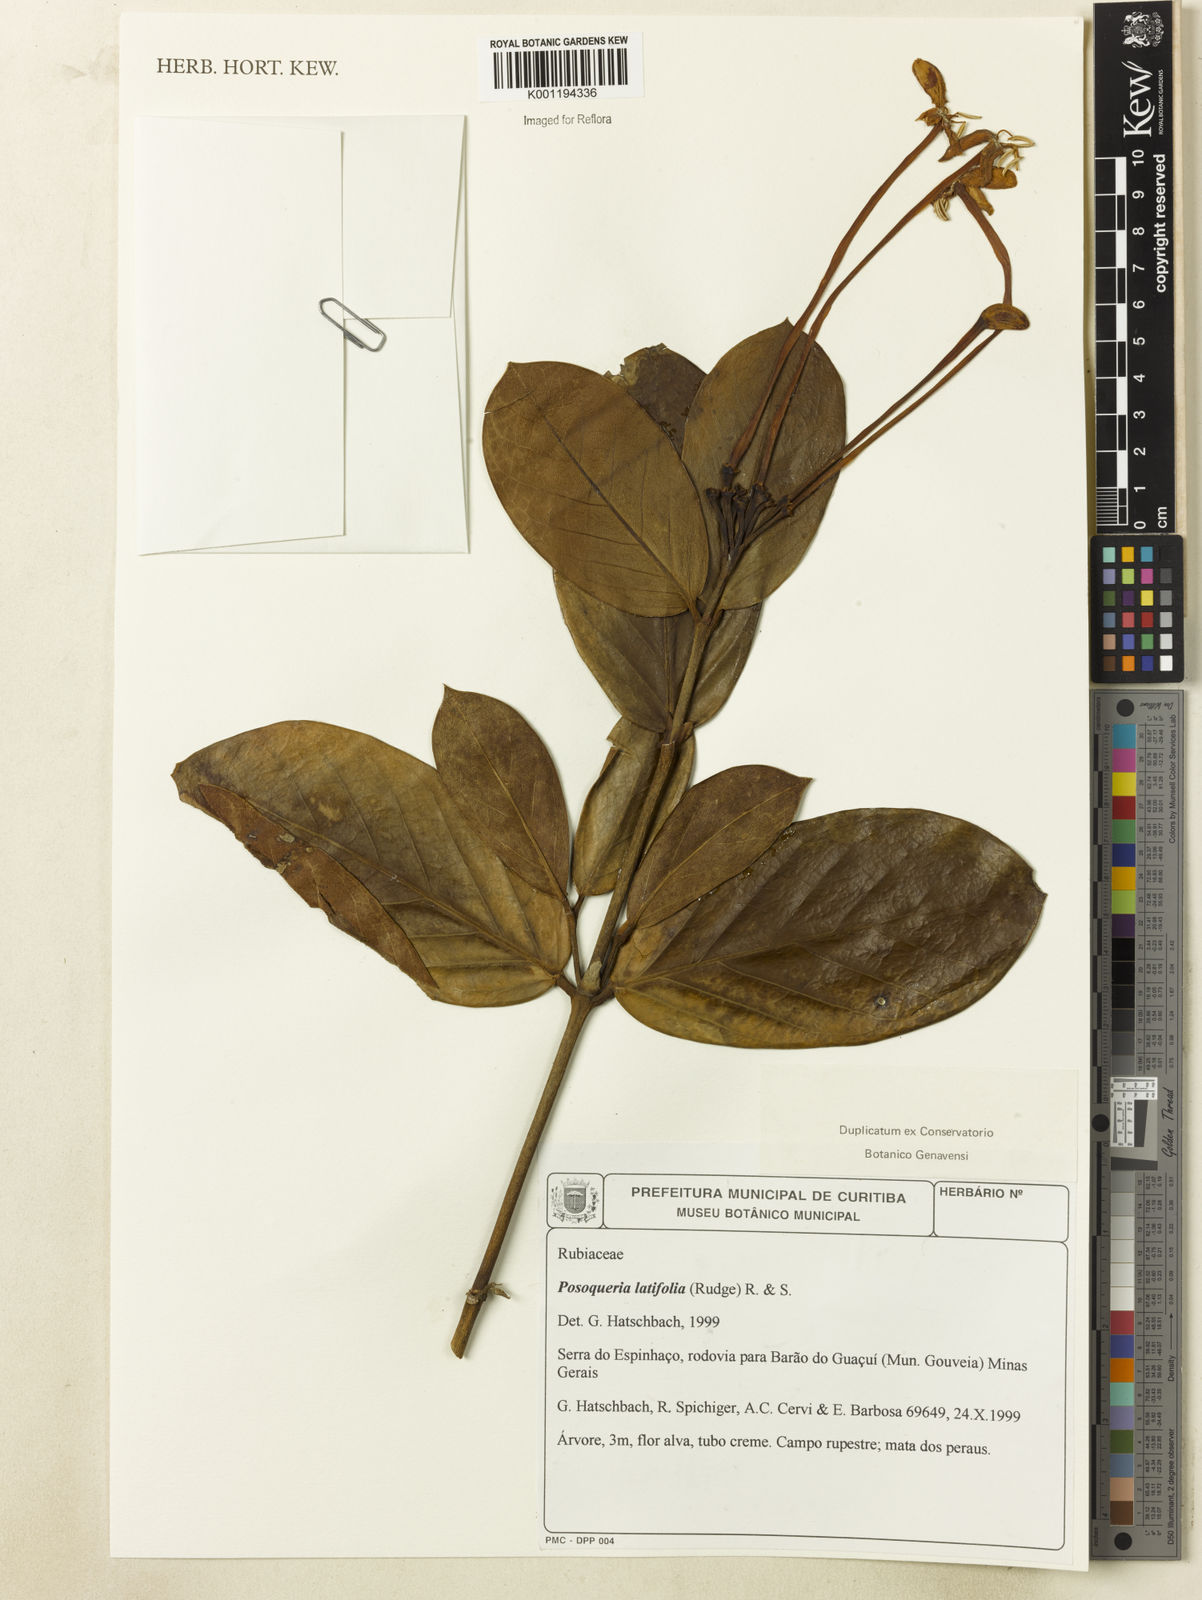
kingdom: Plantae
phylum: Tracheophyta
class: Magnoliopsida
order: Gentianales
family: Rubiaceae
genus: Posoqueria
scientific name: Posoqueria latifolia
